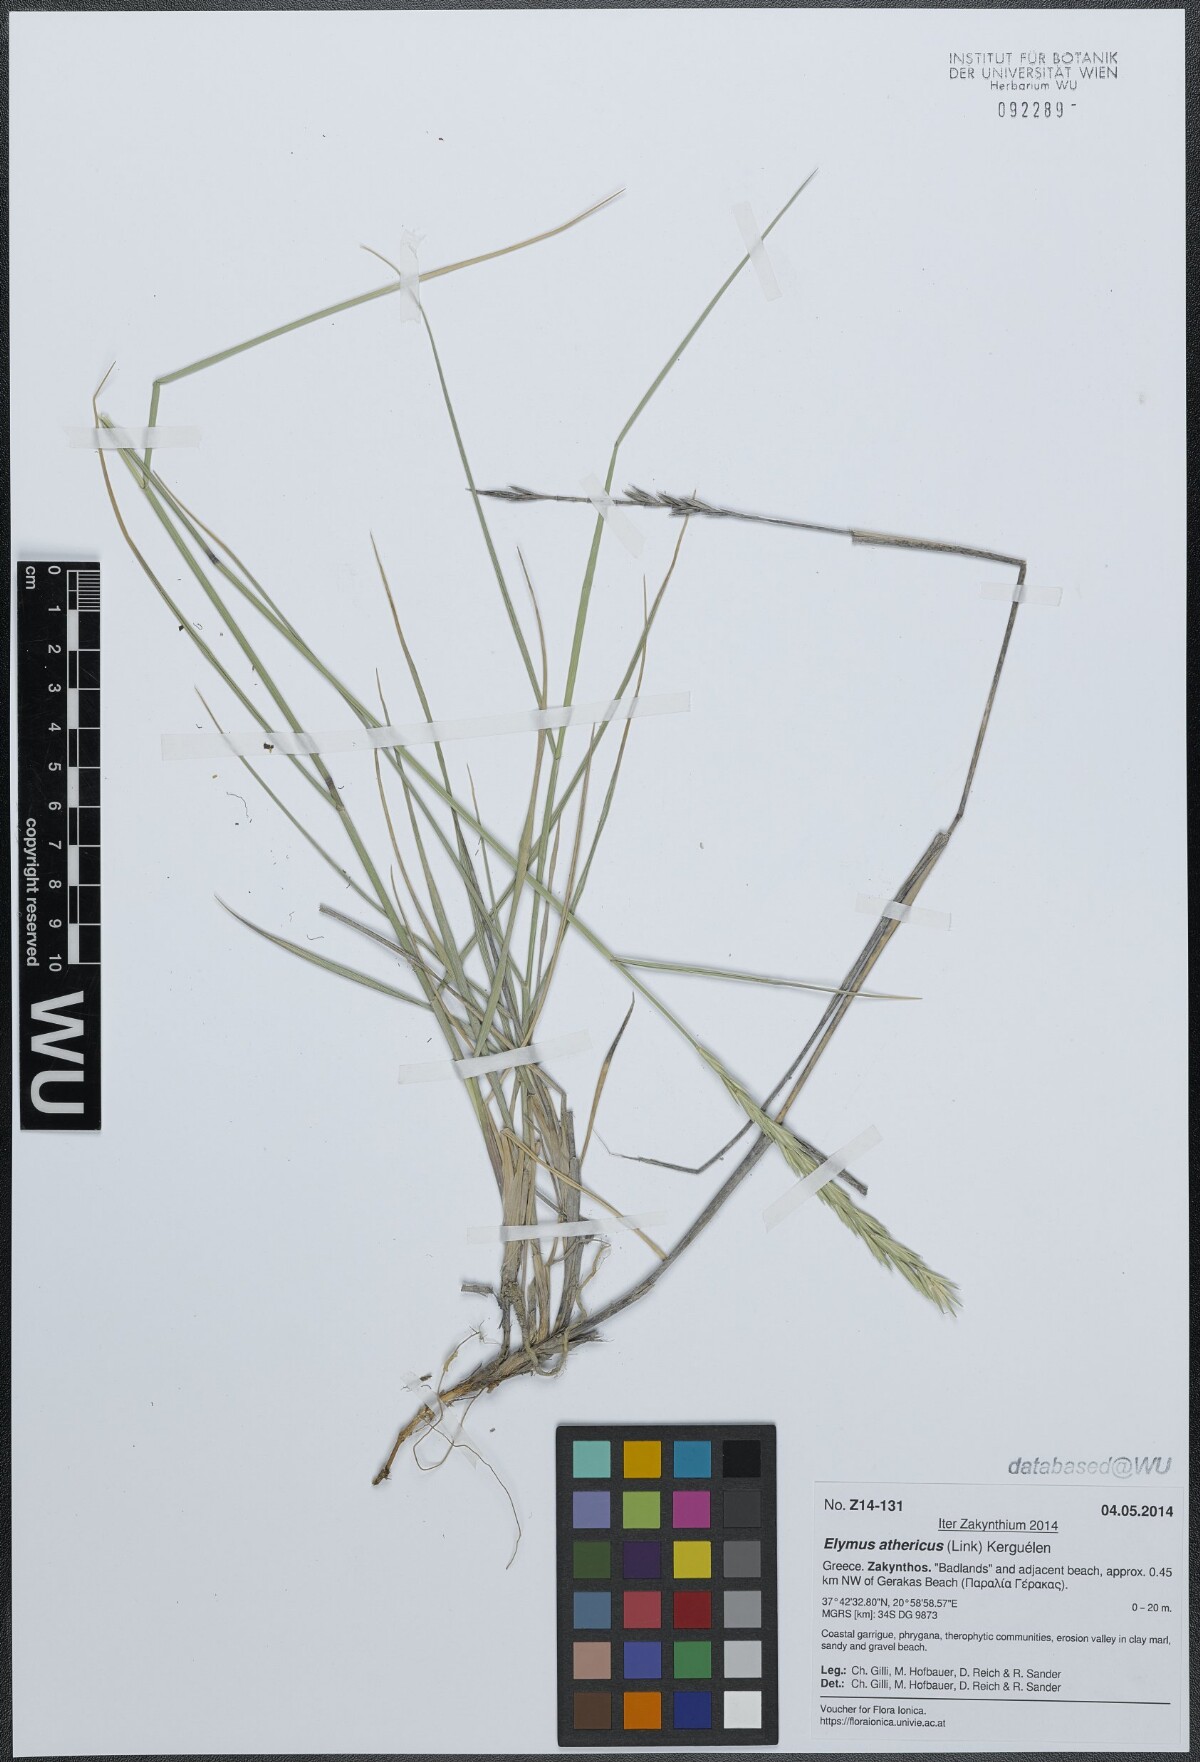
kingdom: Plantae
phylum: Tracheophyta
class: Liliopsida
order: Poales
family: Poaceae
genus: Elymus
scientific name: Elymus athericus
